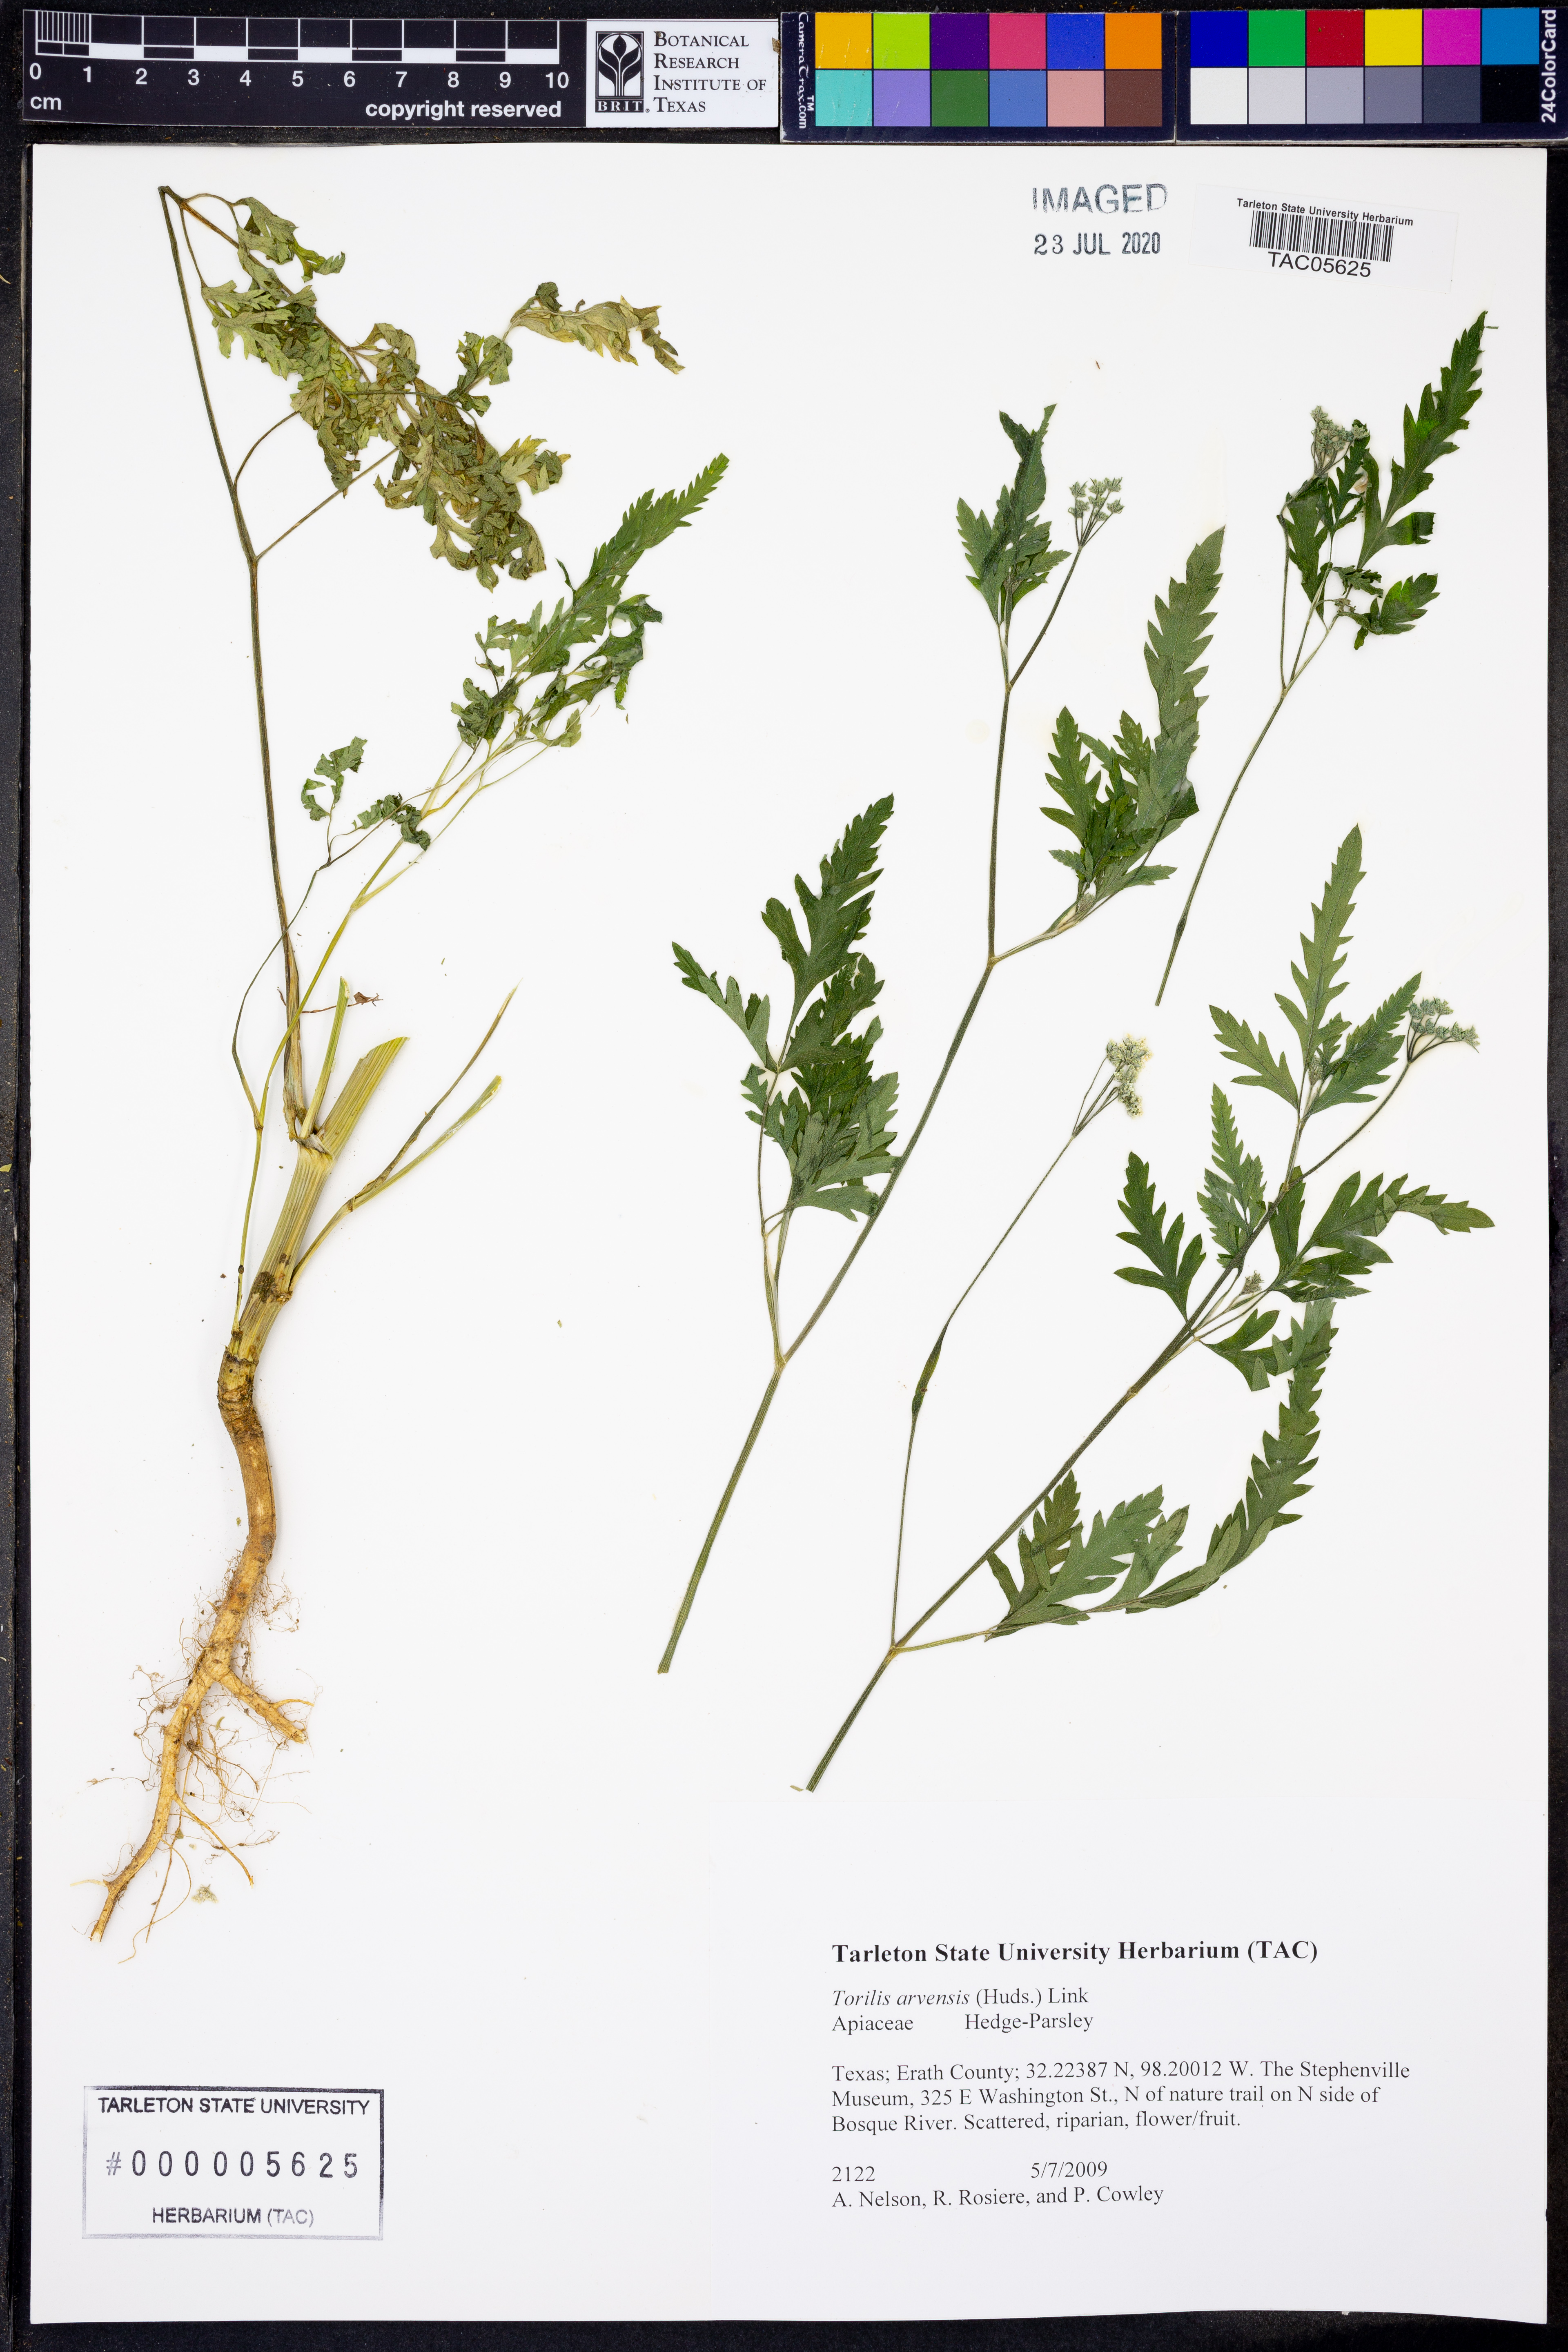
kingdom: Plantae
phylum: Tracheophyta
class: Magnoliopsida
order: Apiales
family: Apiaceae
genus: Torilis
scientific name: Torilis arvensis
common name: Spreading hedge-parsley
